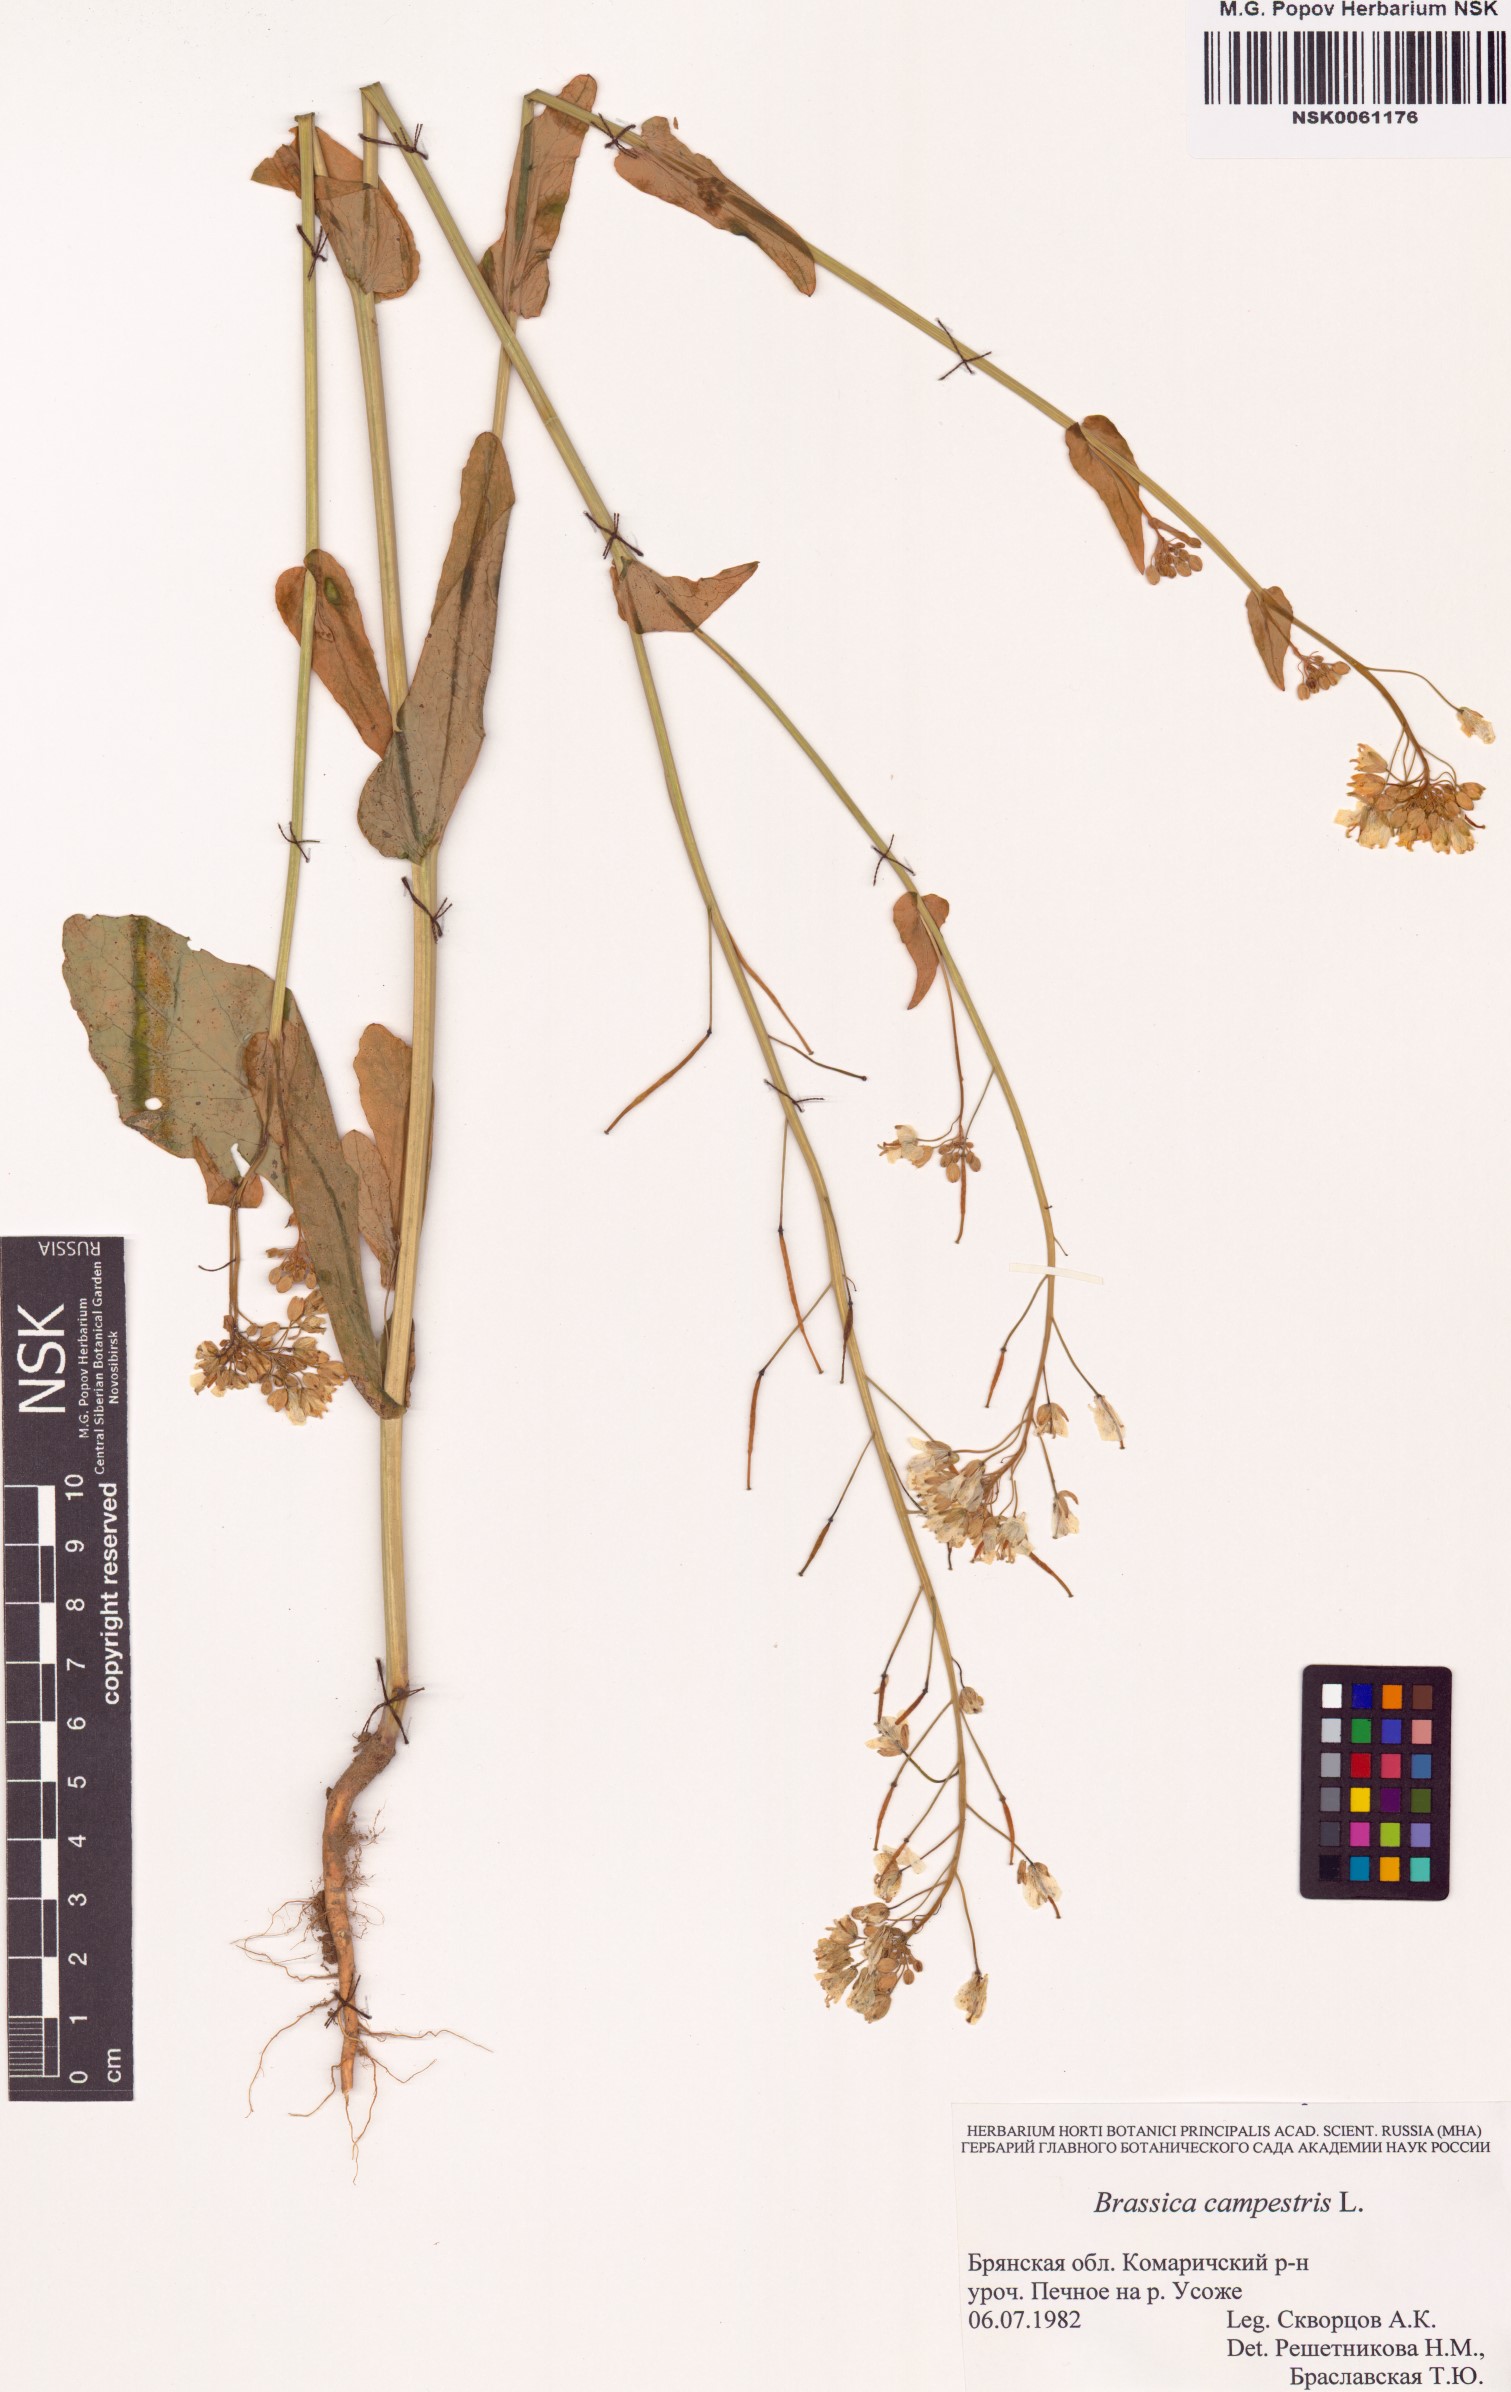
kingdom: Plantae
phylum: Tracheophyta
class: Magnoliopsida
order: Brassicales
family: Brassicaceae
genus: Brassica
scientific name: Brassica rapa
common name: Field mustard
